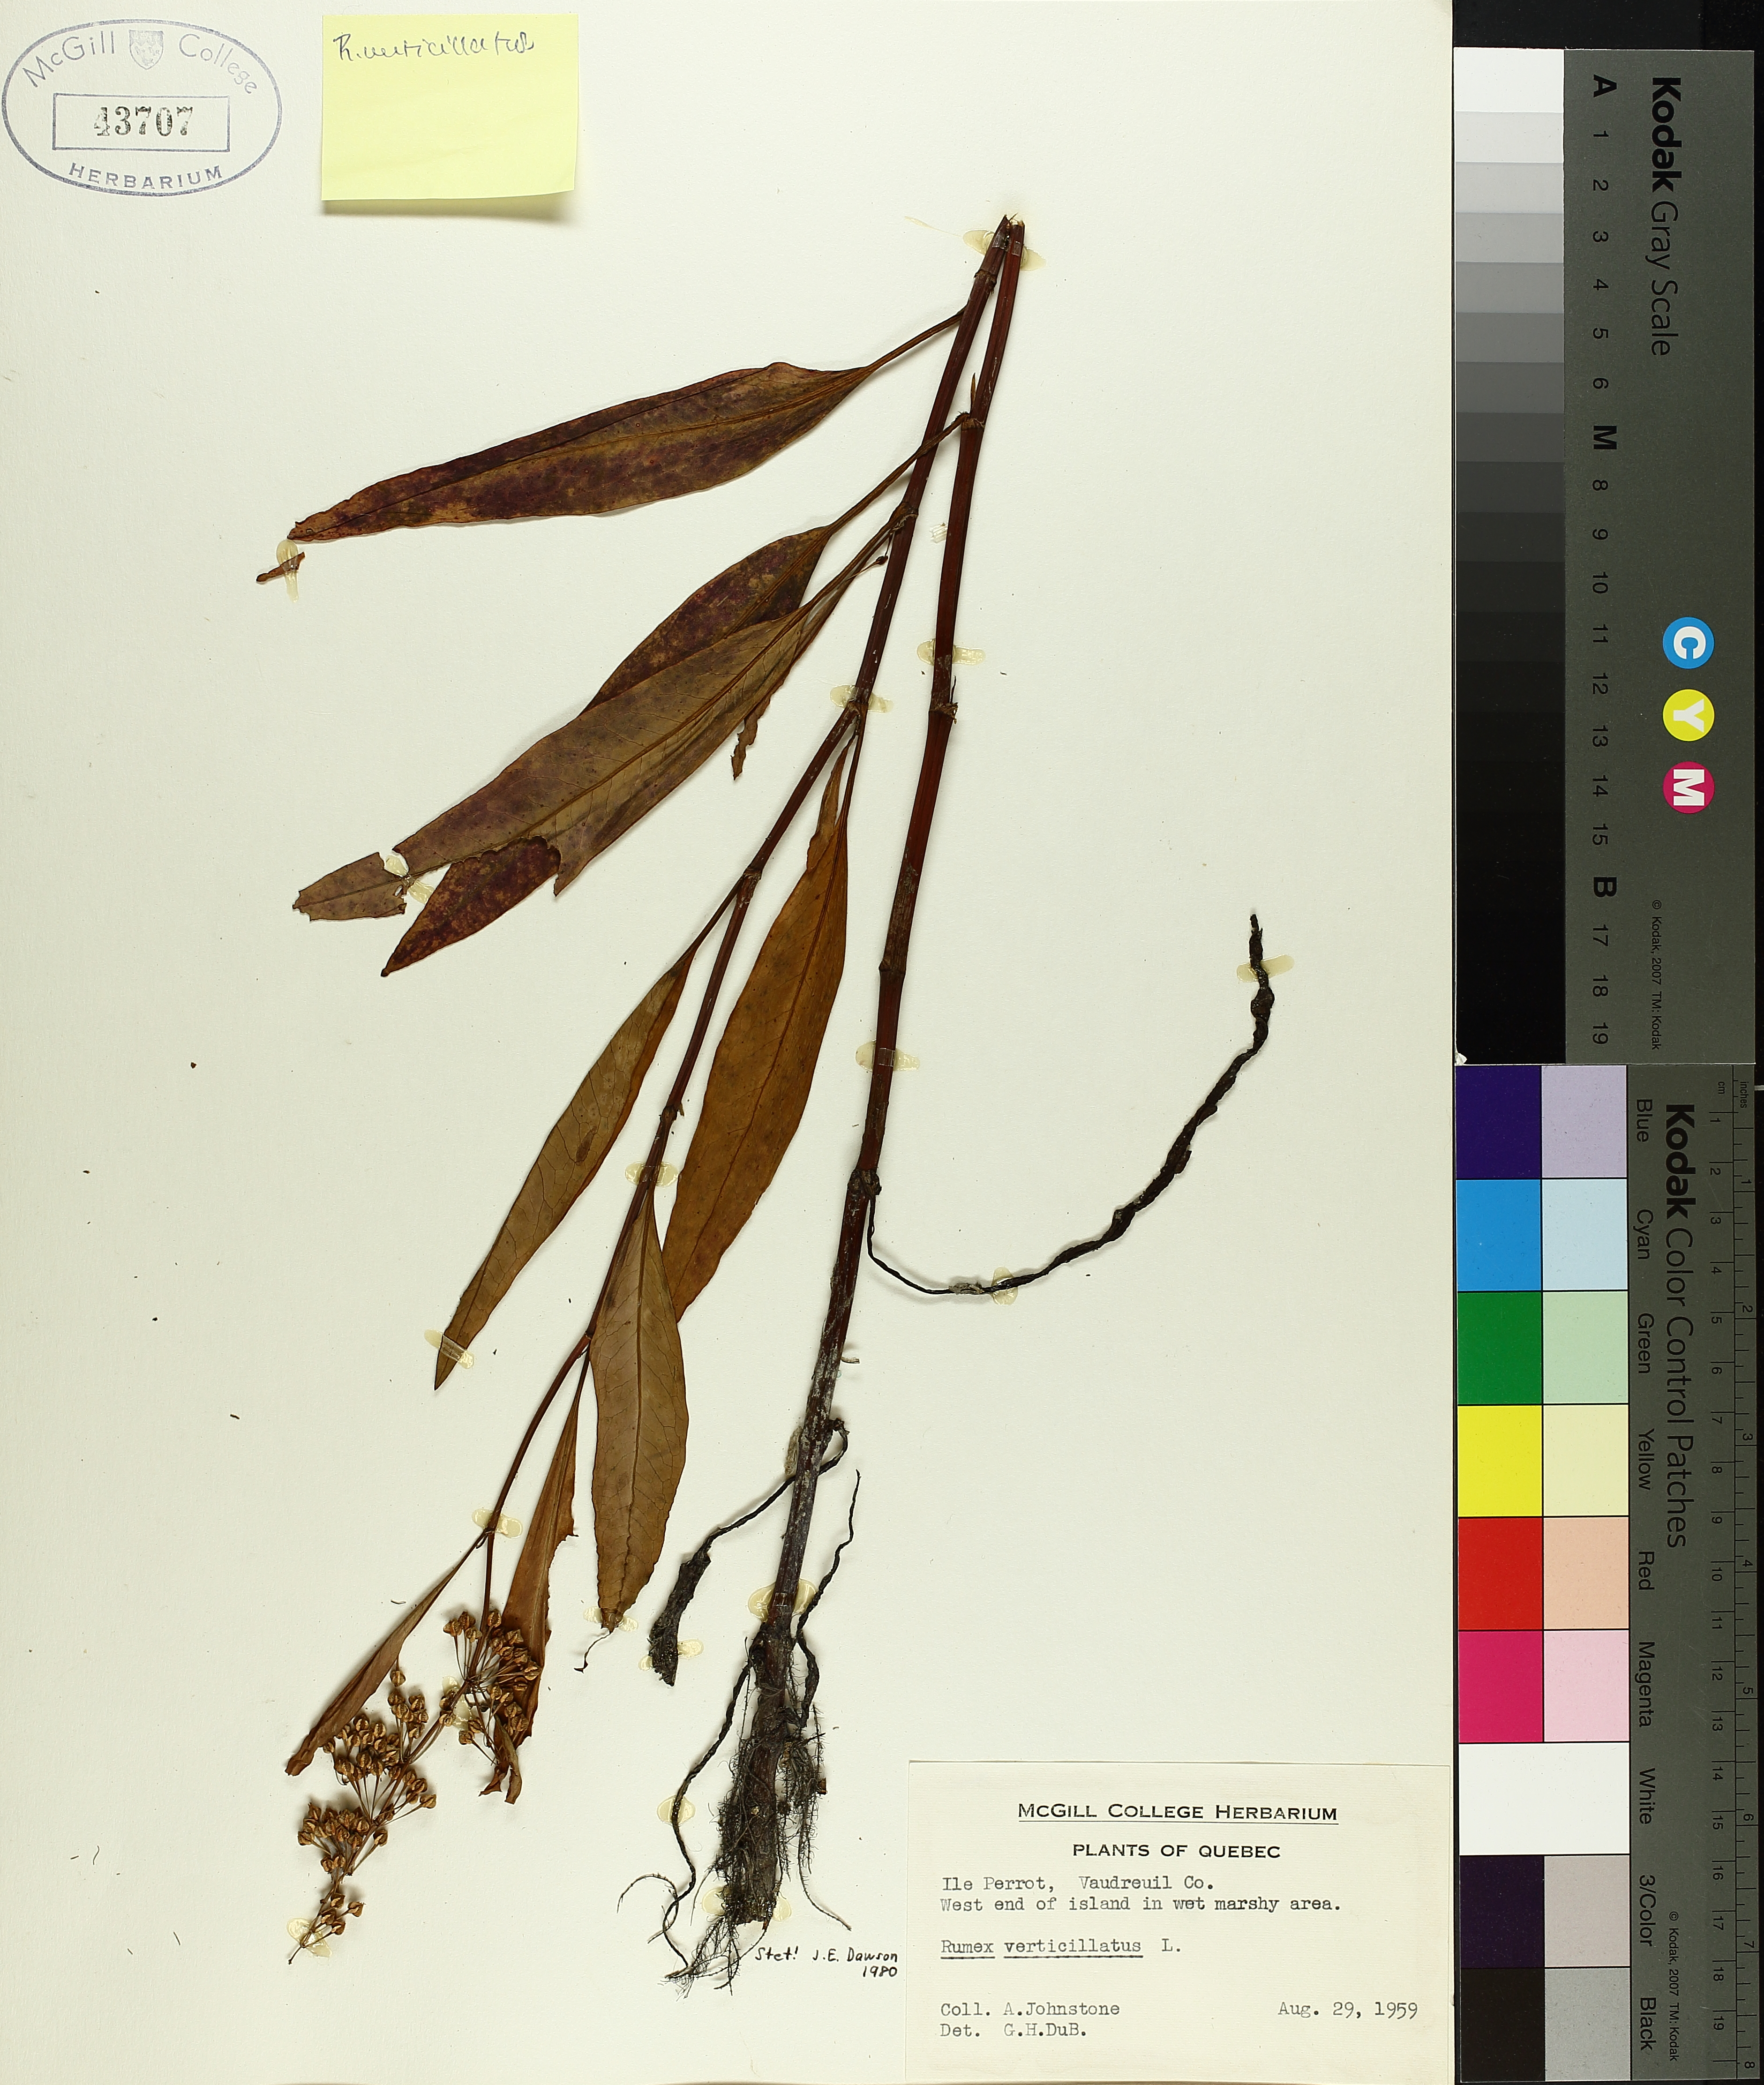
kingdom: Plantae
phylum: Tracheophyta
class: Magnoliopsida
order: Caryophyllales
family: Polygonaceae
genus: Rumex
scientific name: Rumex verticillatus
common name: Swamp dock
